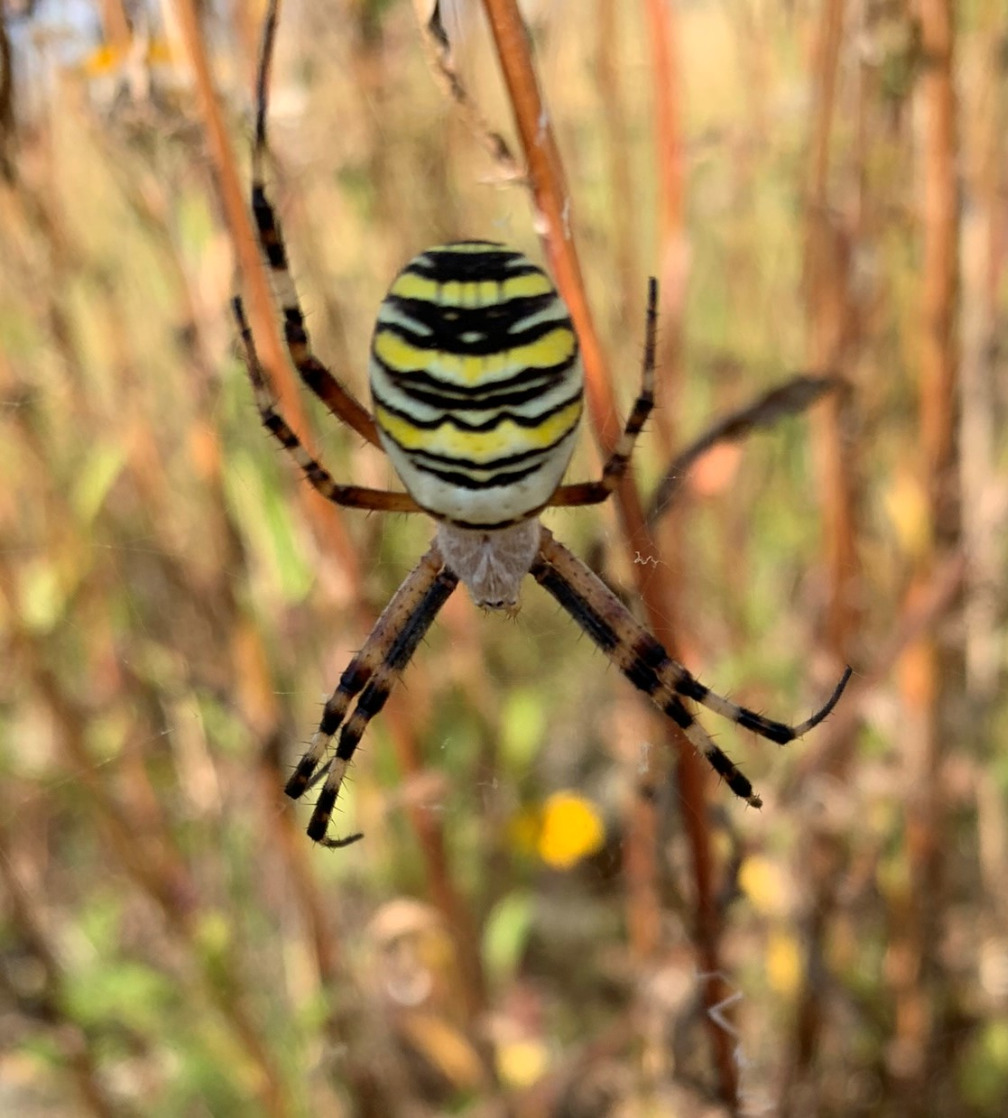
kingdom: Animalia
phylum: Arthropoda
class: Arachnida
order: Araneae
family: Araneidae
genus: Argiope
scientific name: Argiope bruennichi
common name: Hvepseedderkop
